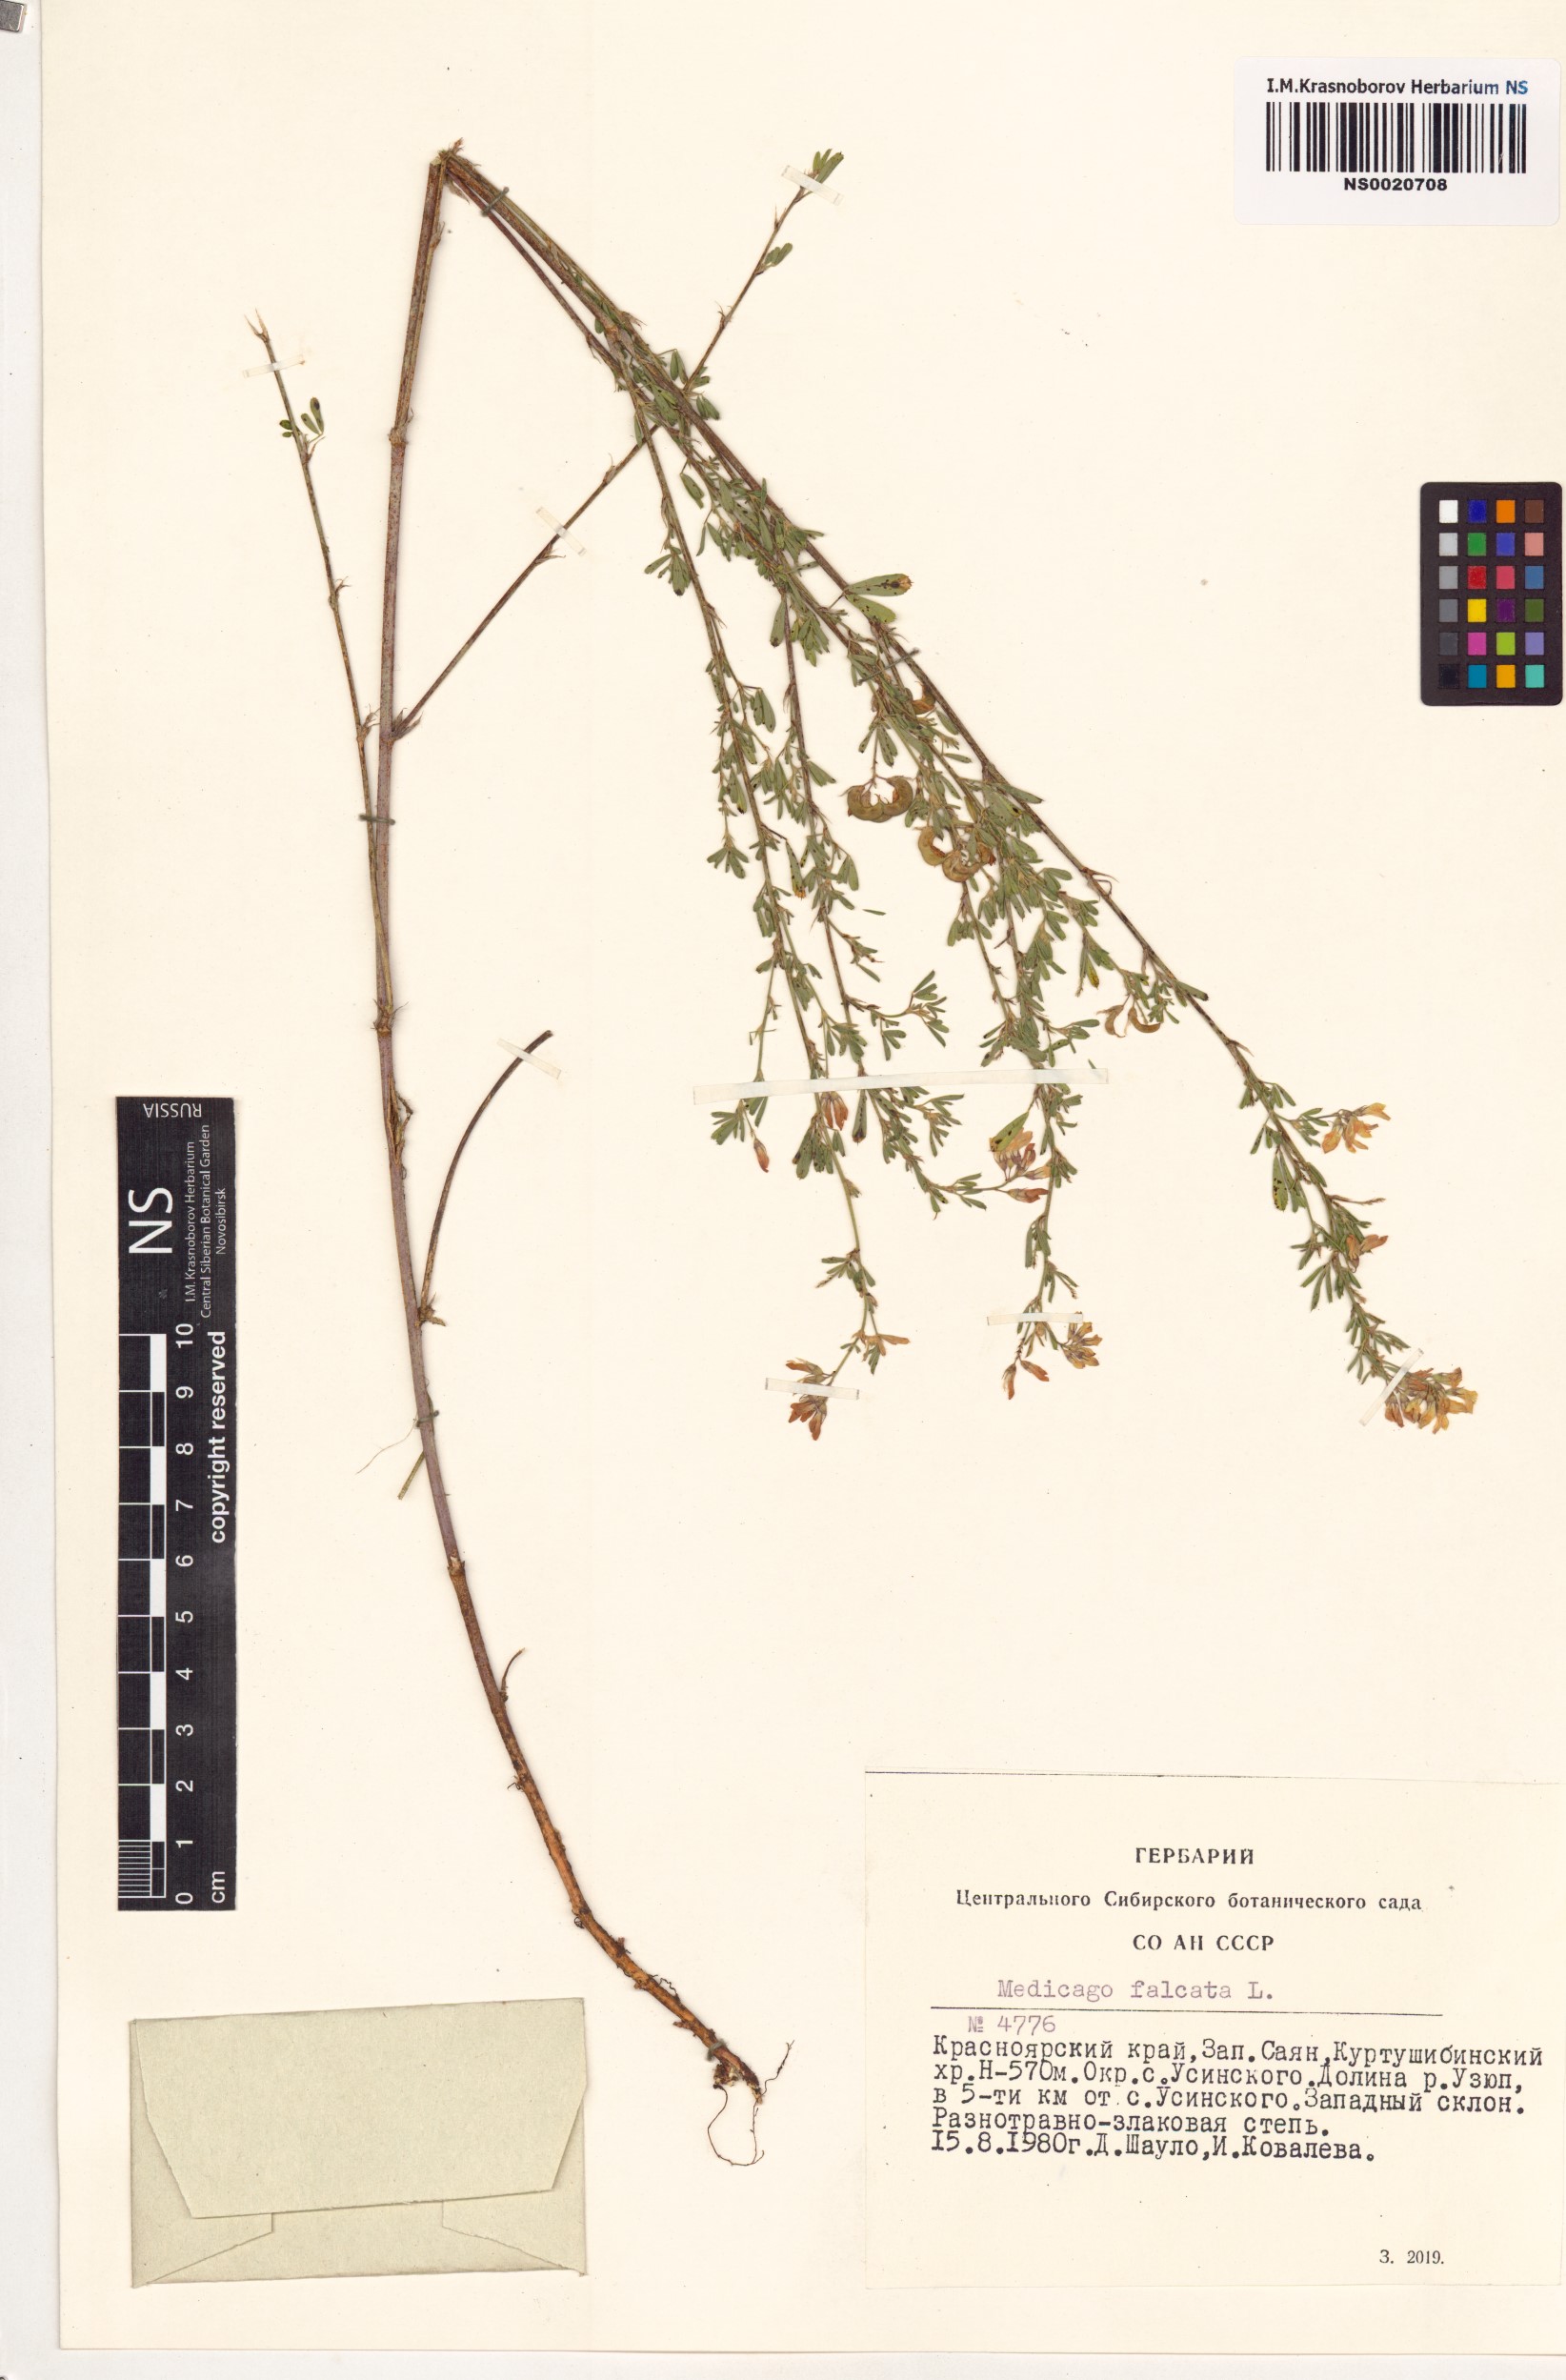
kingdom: Plantae
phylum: Tracheophyta
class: Magnoliopsida
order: Fabales
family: Fabaceae
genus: Medicago
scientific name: Medicago falcata
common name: Sickle medick
